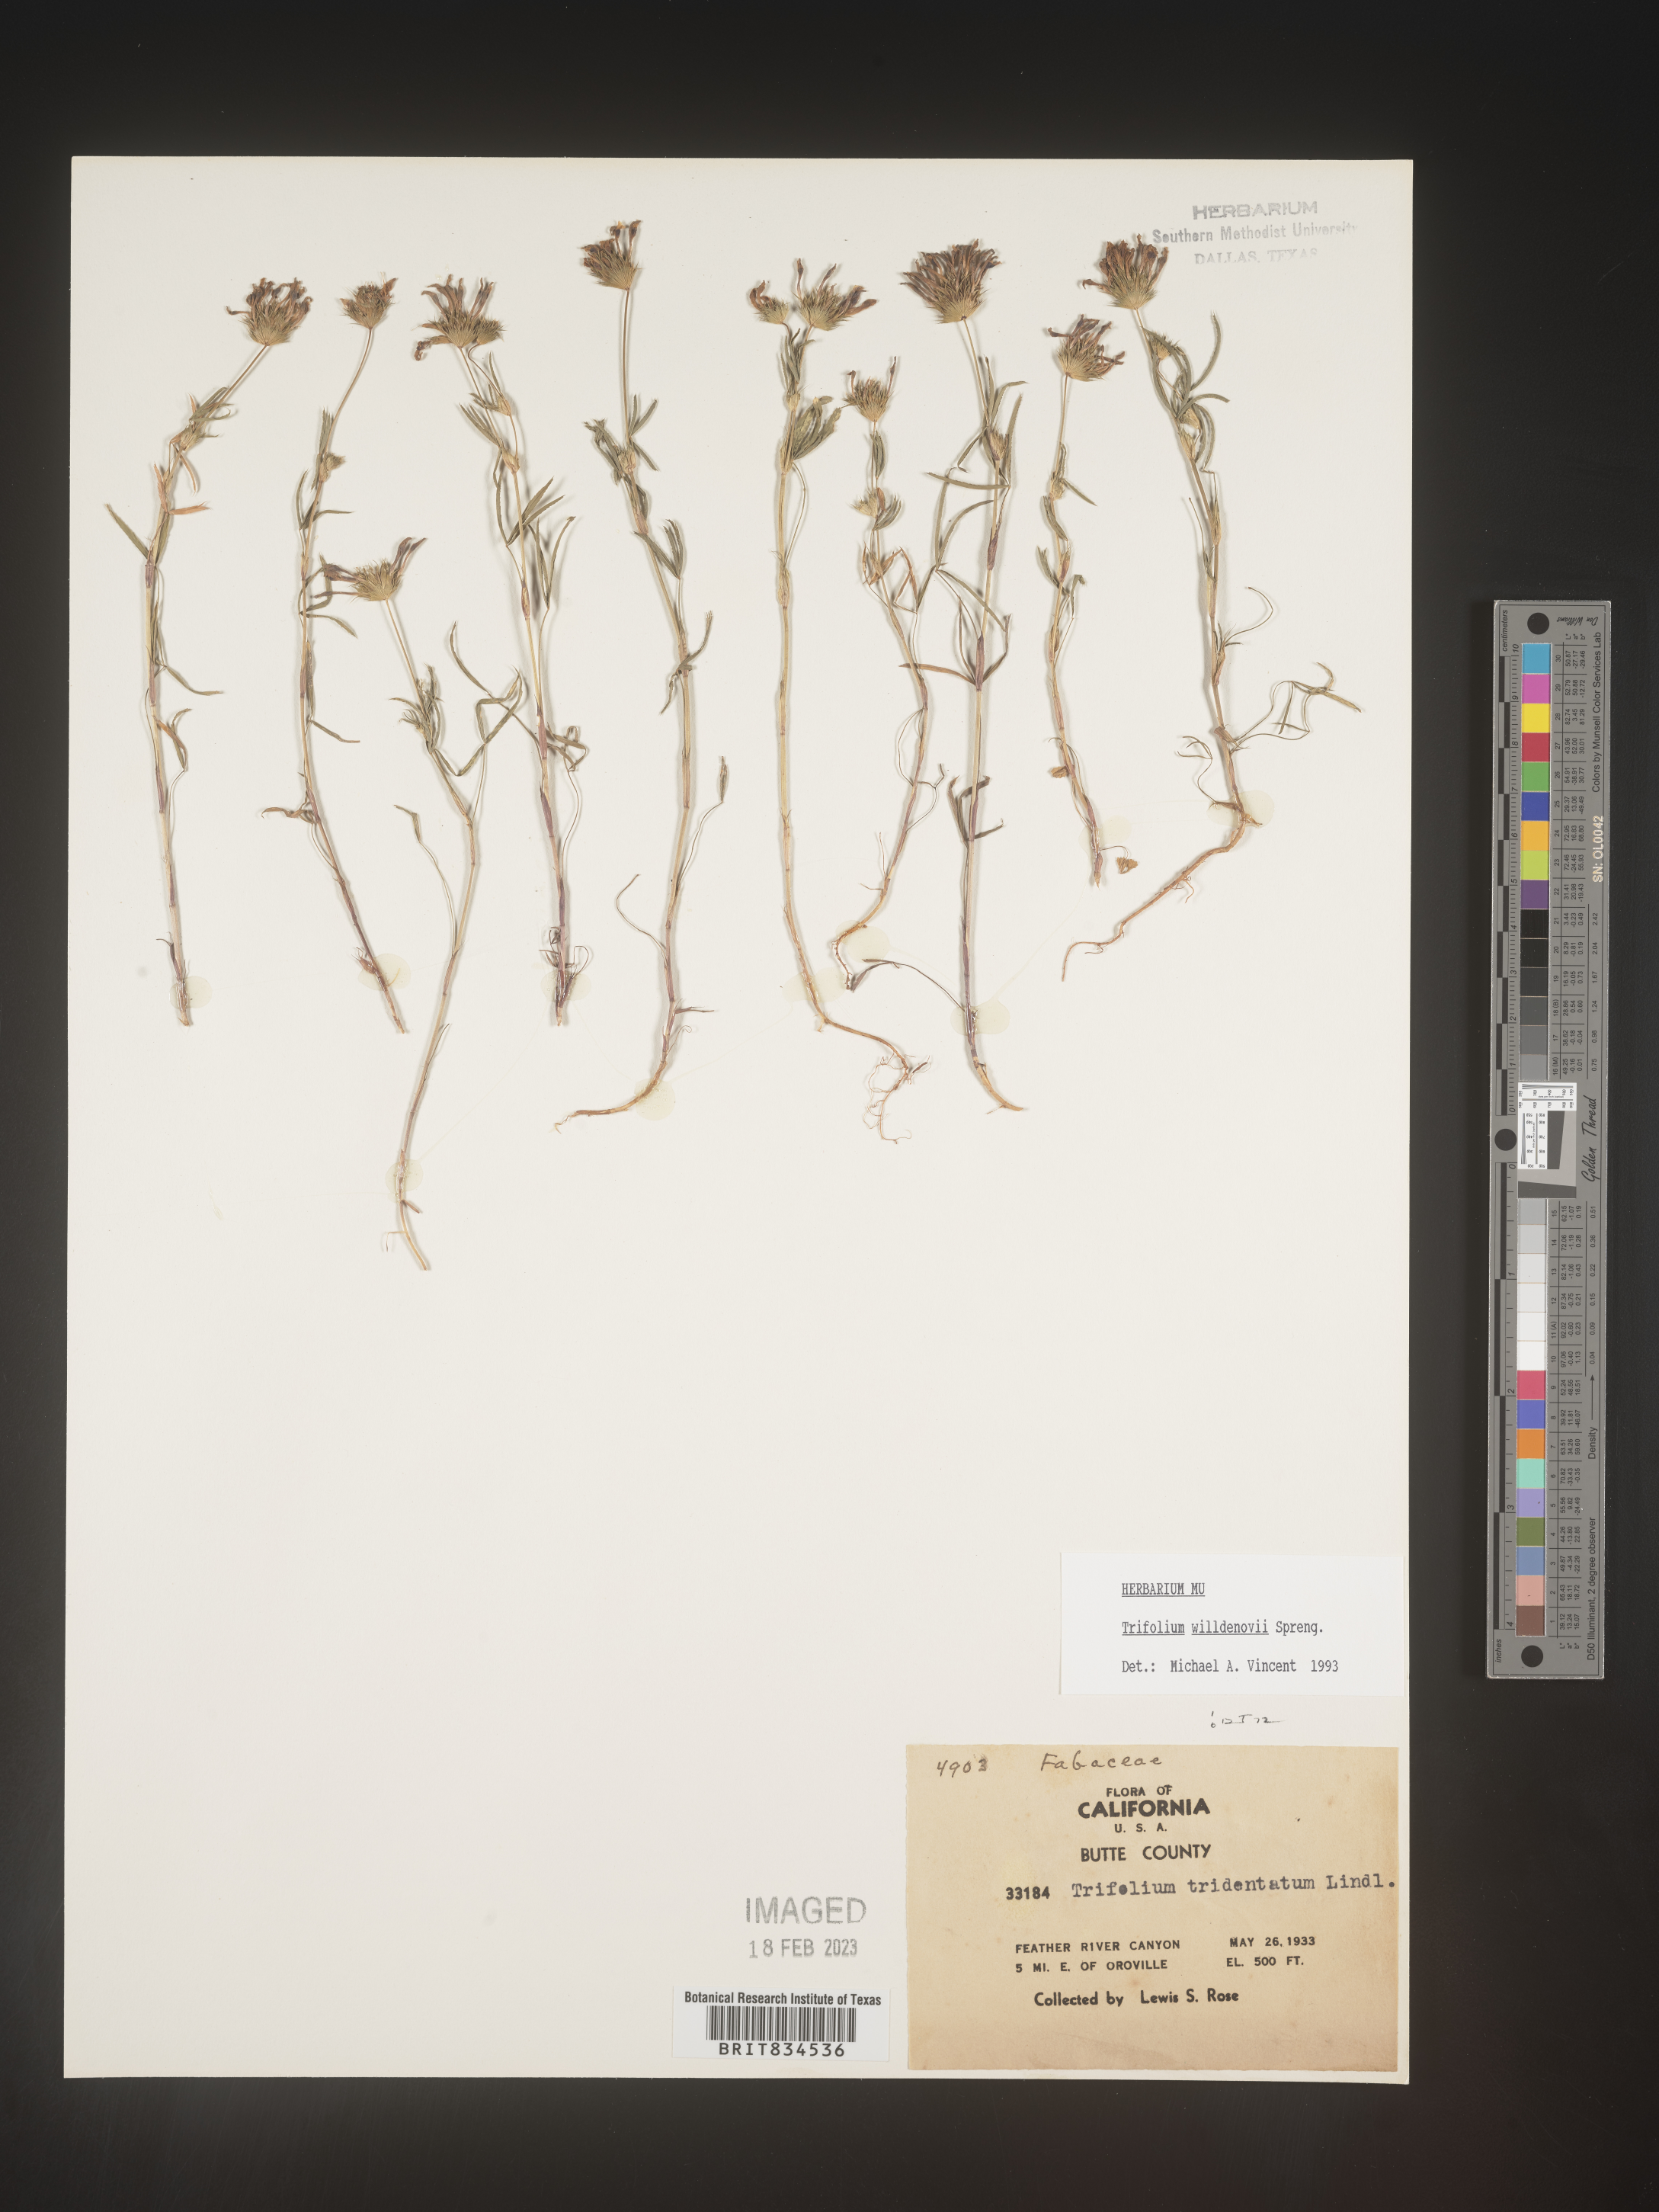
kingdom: Plantae
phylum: Tracheophyta
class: Magnoliopsida
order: Fabales
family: Fabaceae
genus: Trifolium
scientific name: Trifolium
